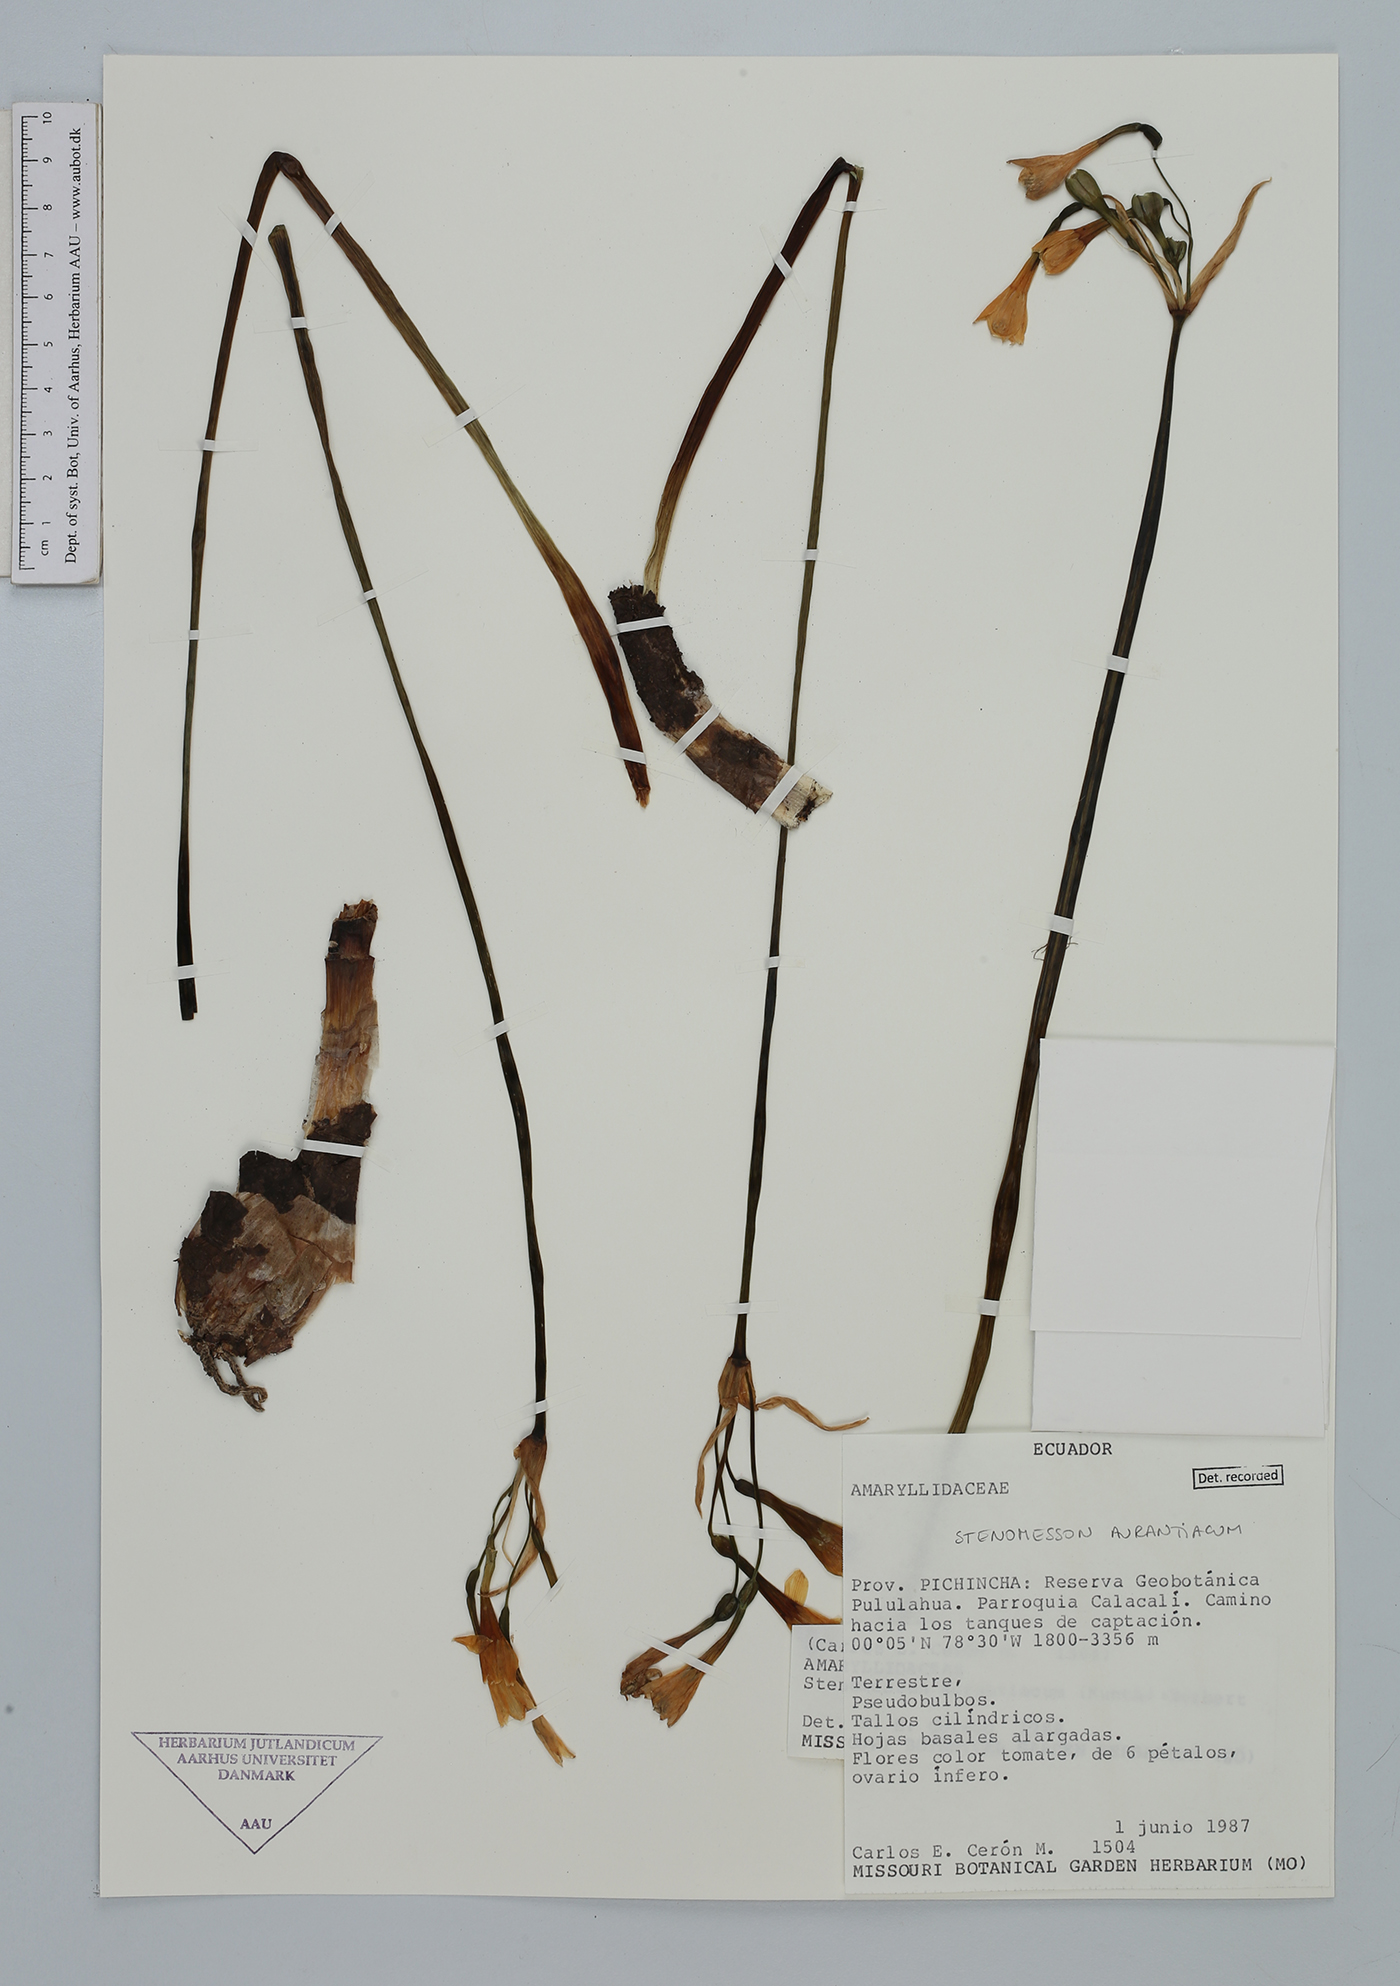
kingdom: Plantae
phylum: Tracheophyta
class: Liliopsida
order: Asparagales
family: Amaryllidaceae
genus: Stenomesson
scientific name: Stenomesson aurantiacum
